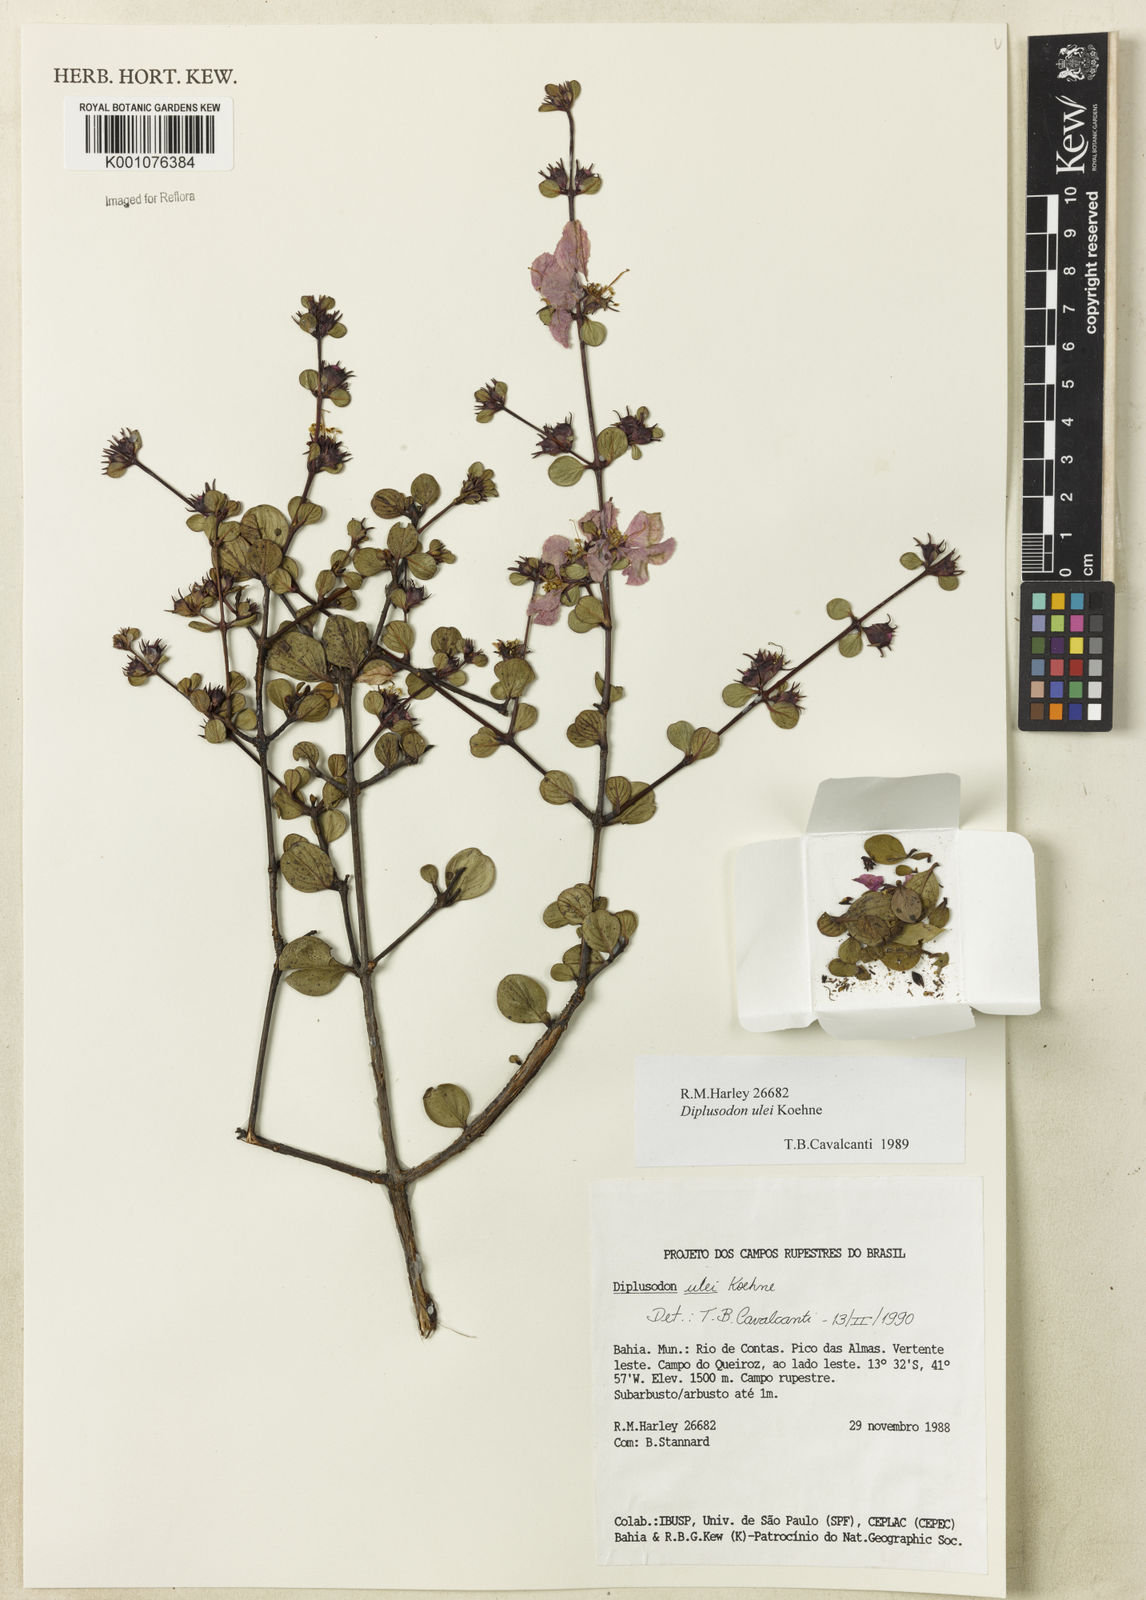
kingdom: Plantae
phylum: Tracheophyta
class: Magnoliopsida
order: Myrtales
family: Lythraceae
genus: Diplusodon
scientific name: Diplusodon ulei
